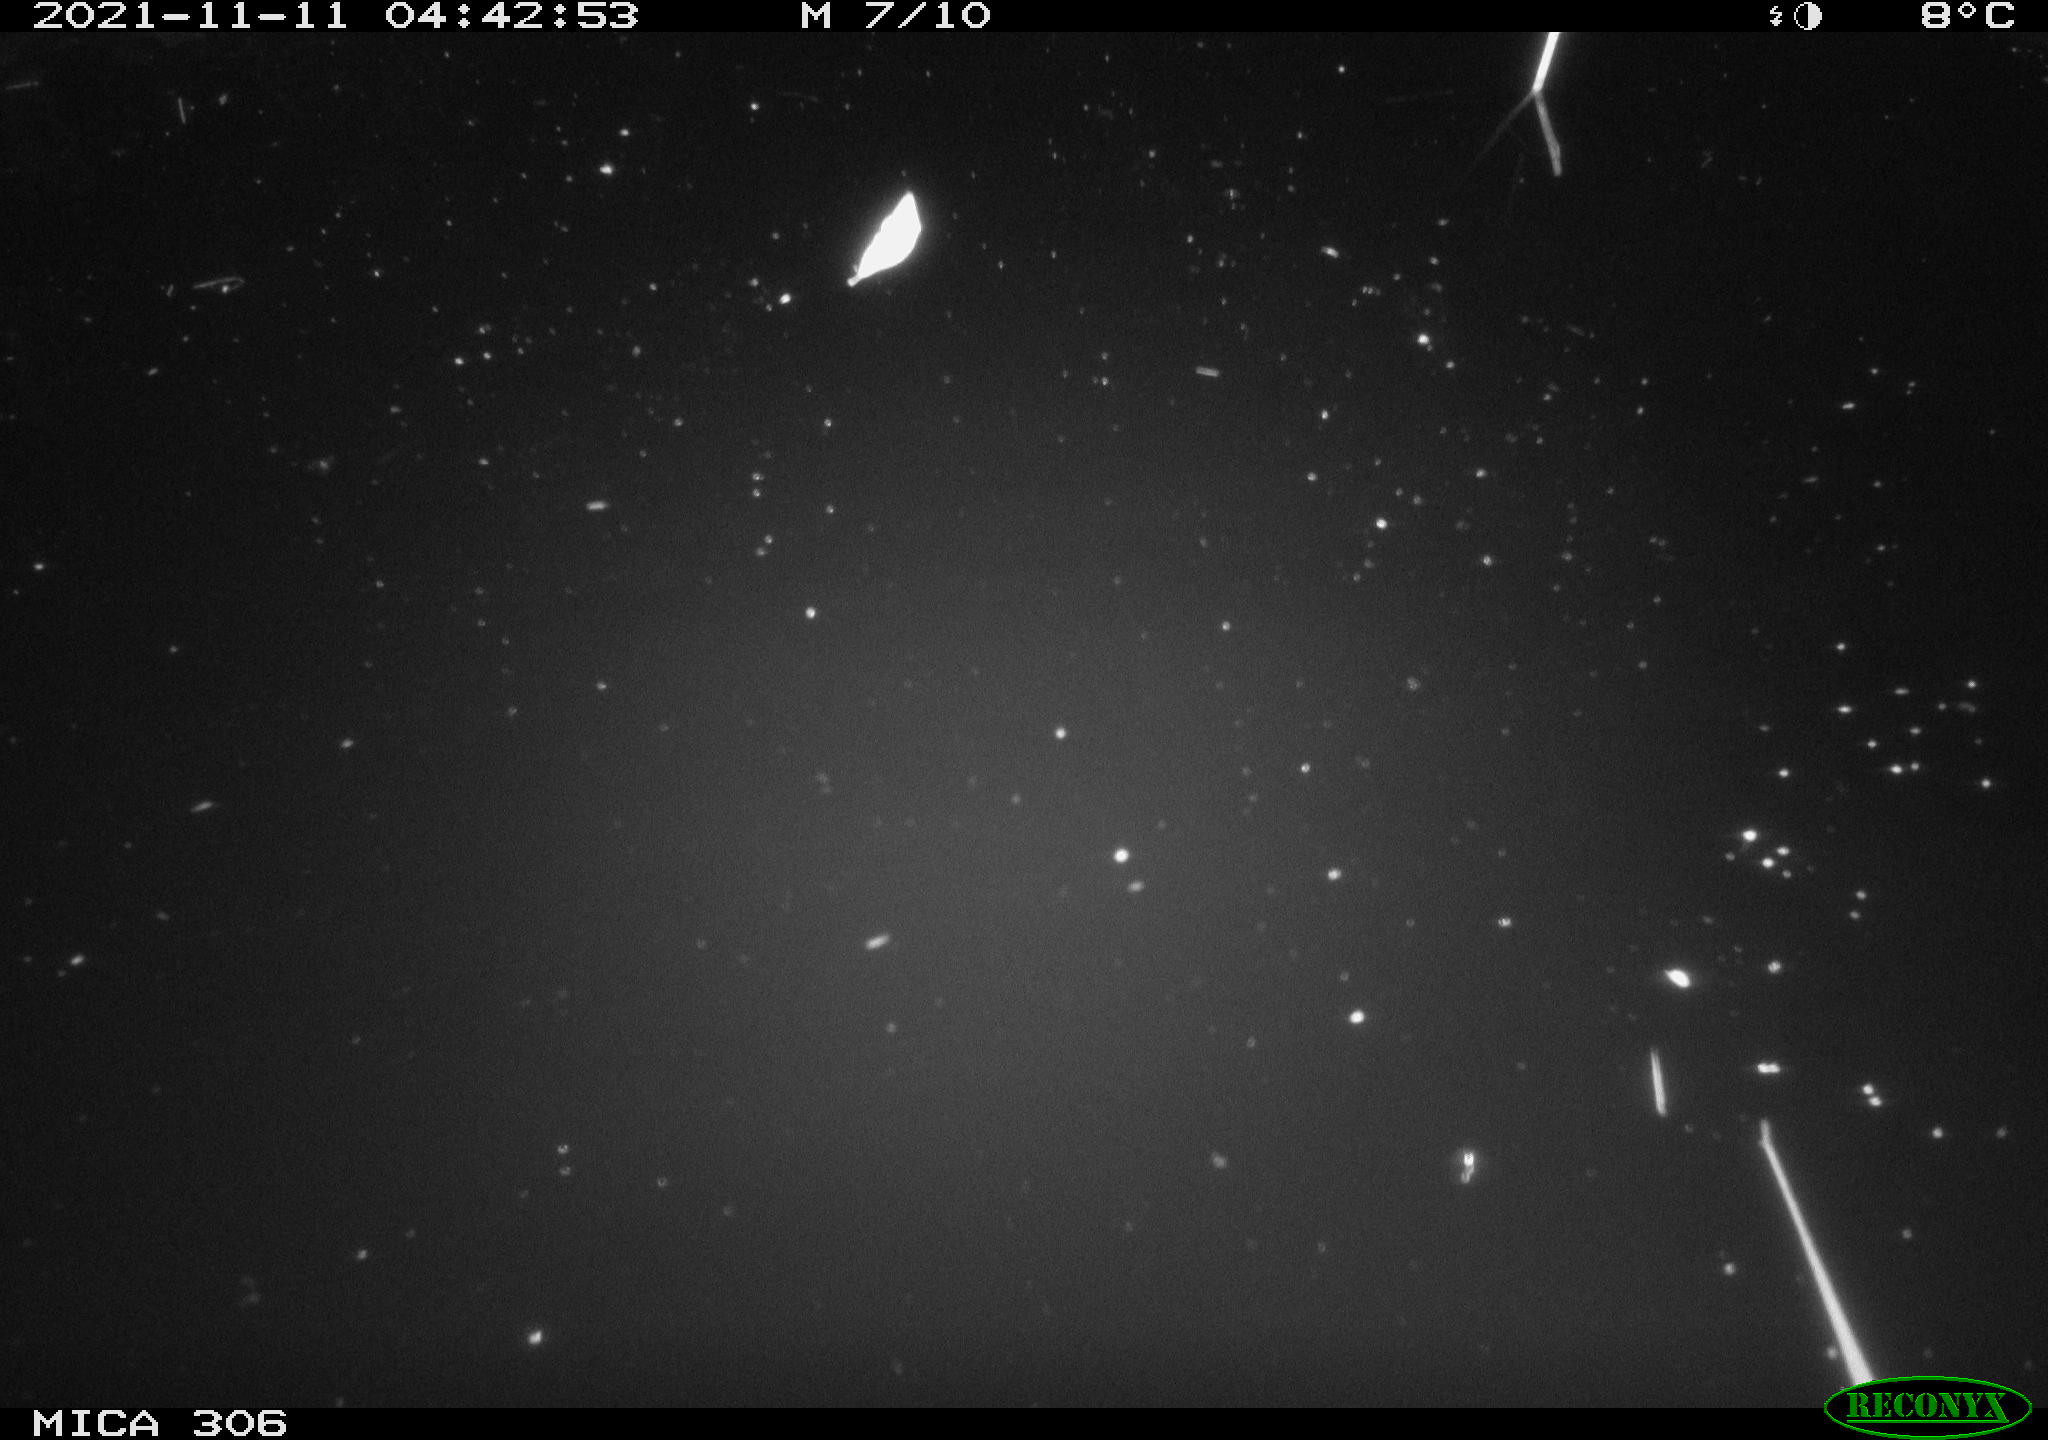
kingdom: Animalia
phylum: Chordata
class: Mammalia
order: Rodentia
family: Muridae
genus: Rattus
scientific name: Rattus norvegicus
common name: Brown rat
